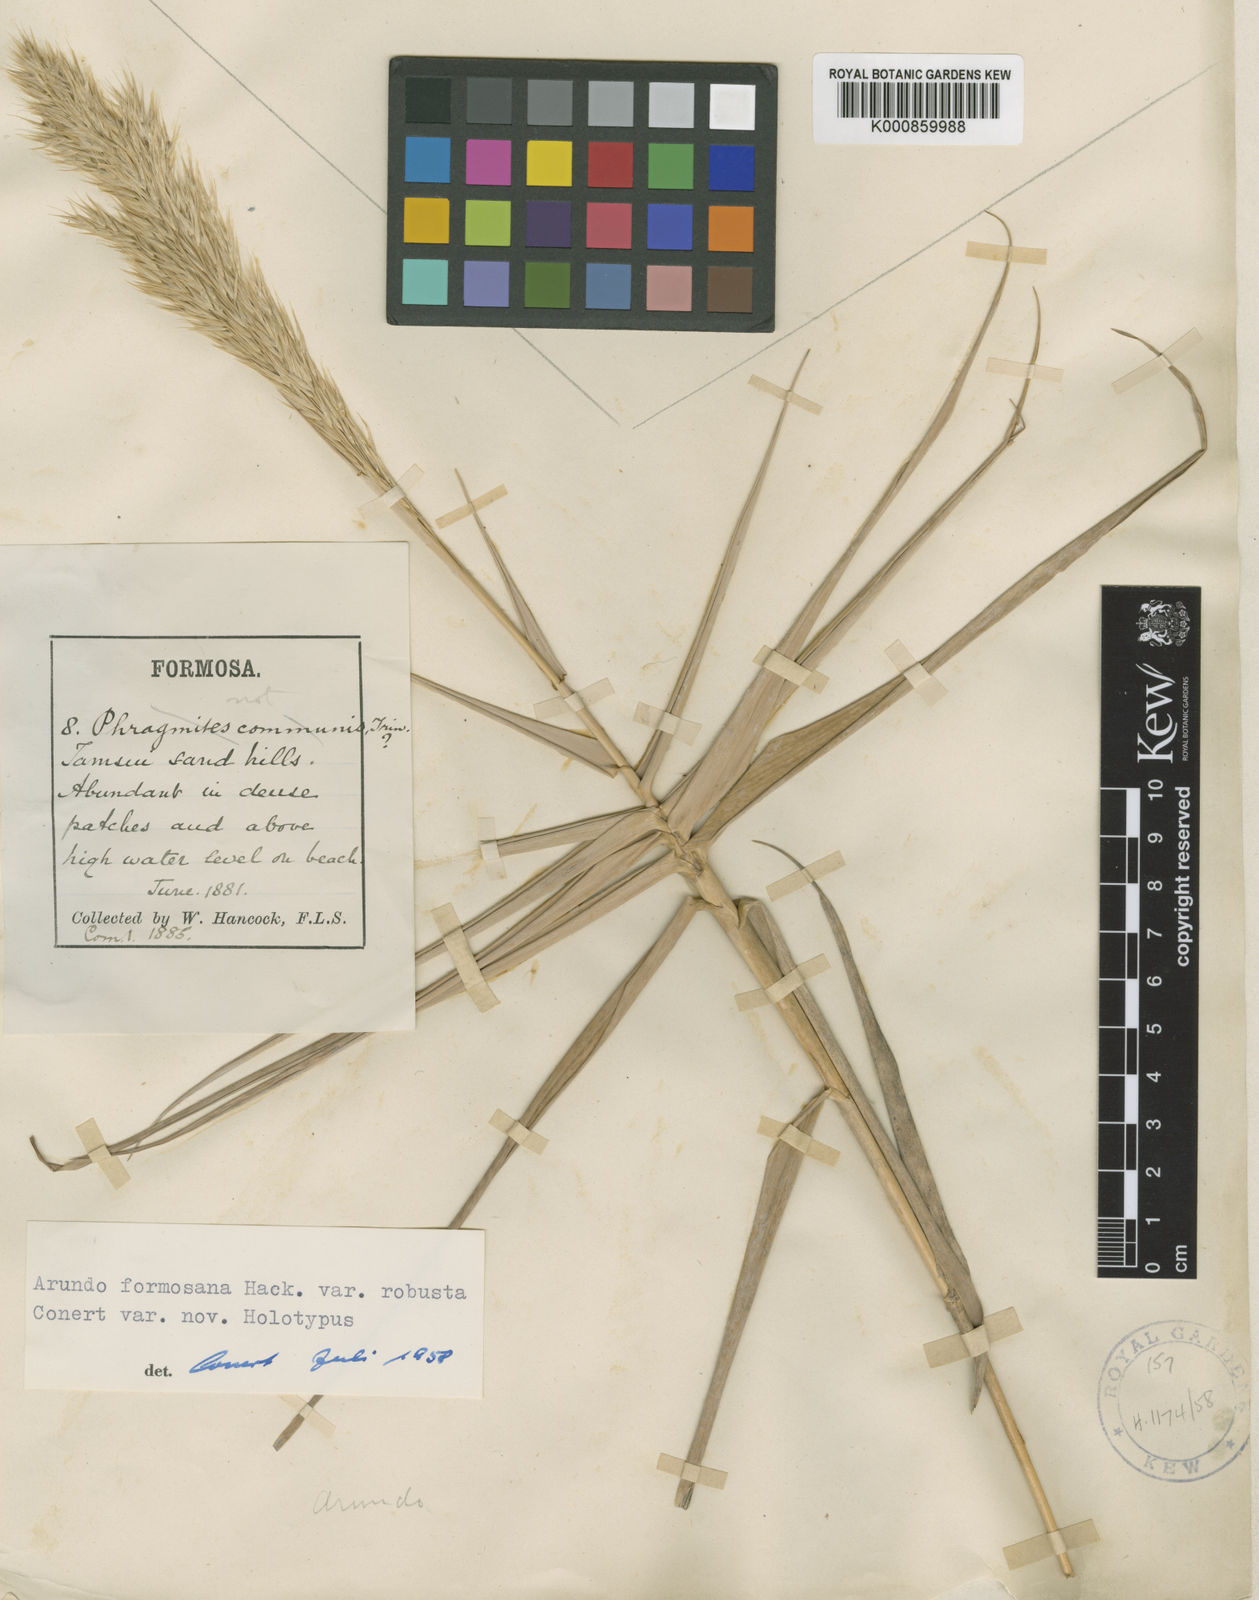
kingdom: Plantae
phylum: Tracheophyta
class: Liliopsida
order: Poales
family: Poaceae
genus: Arundo
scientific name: Arundo formosana
